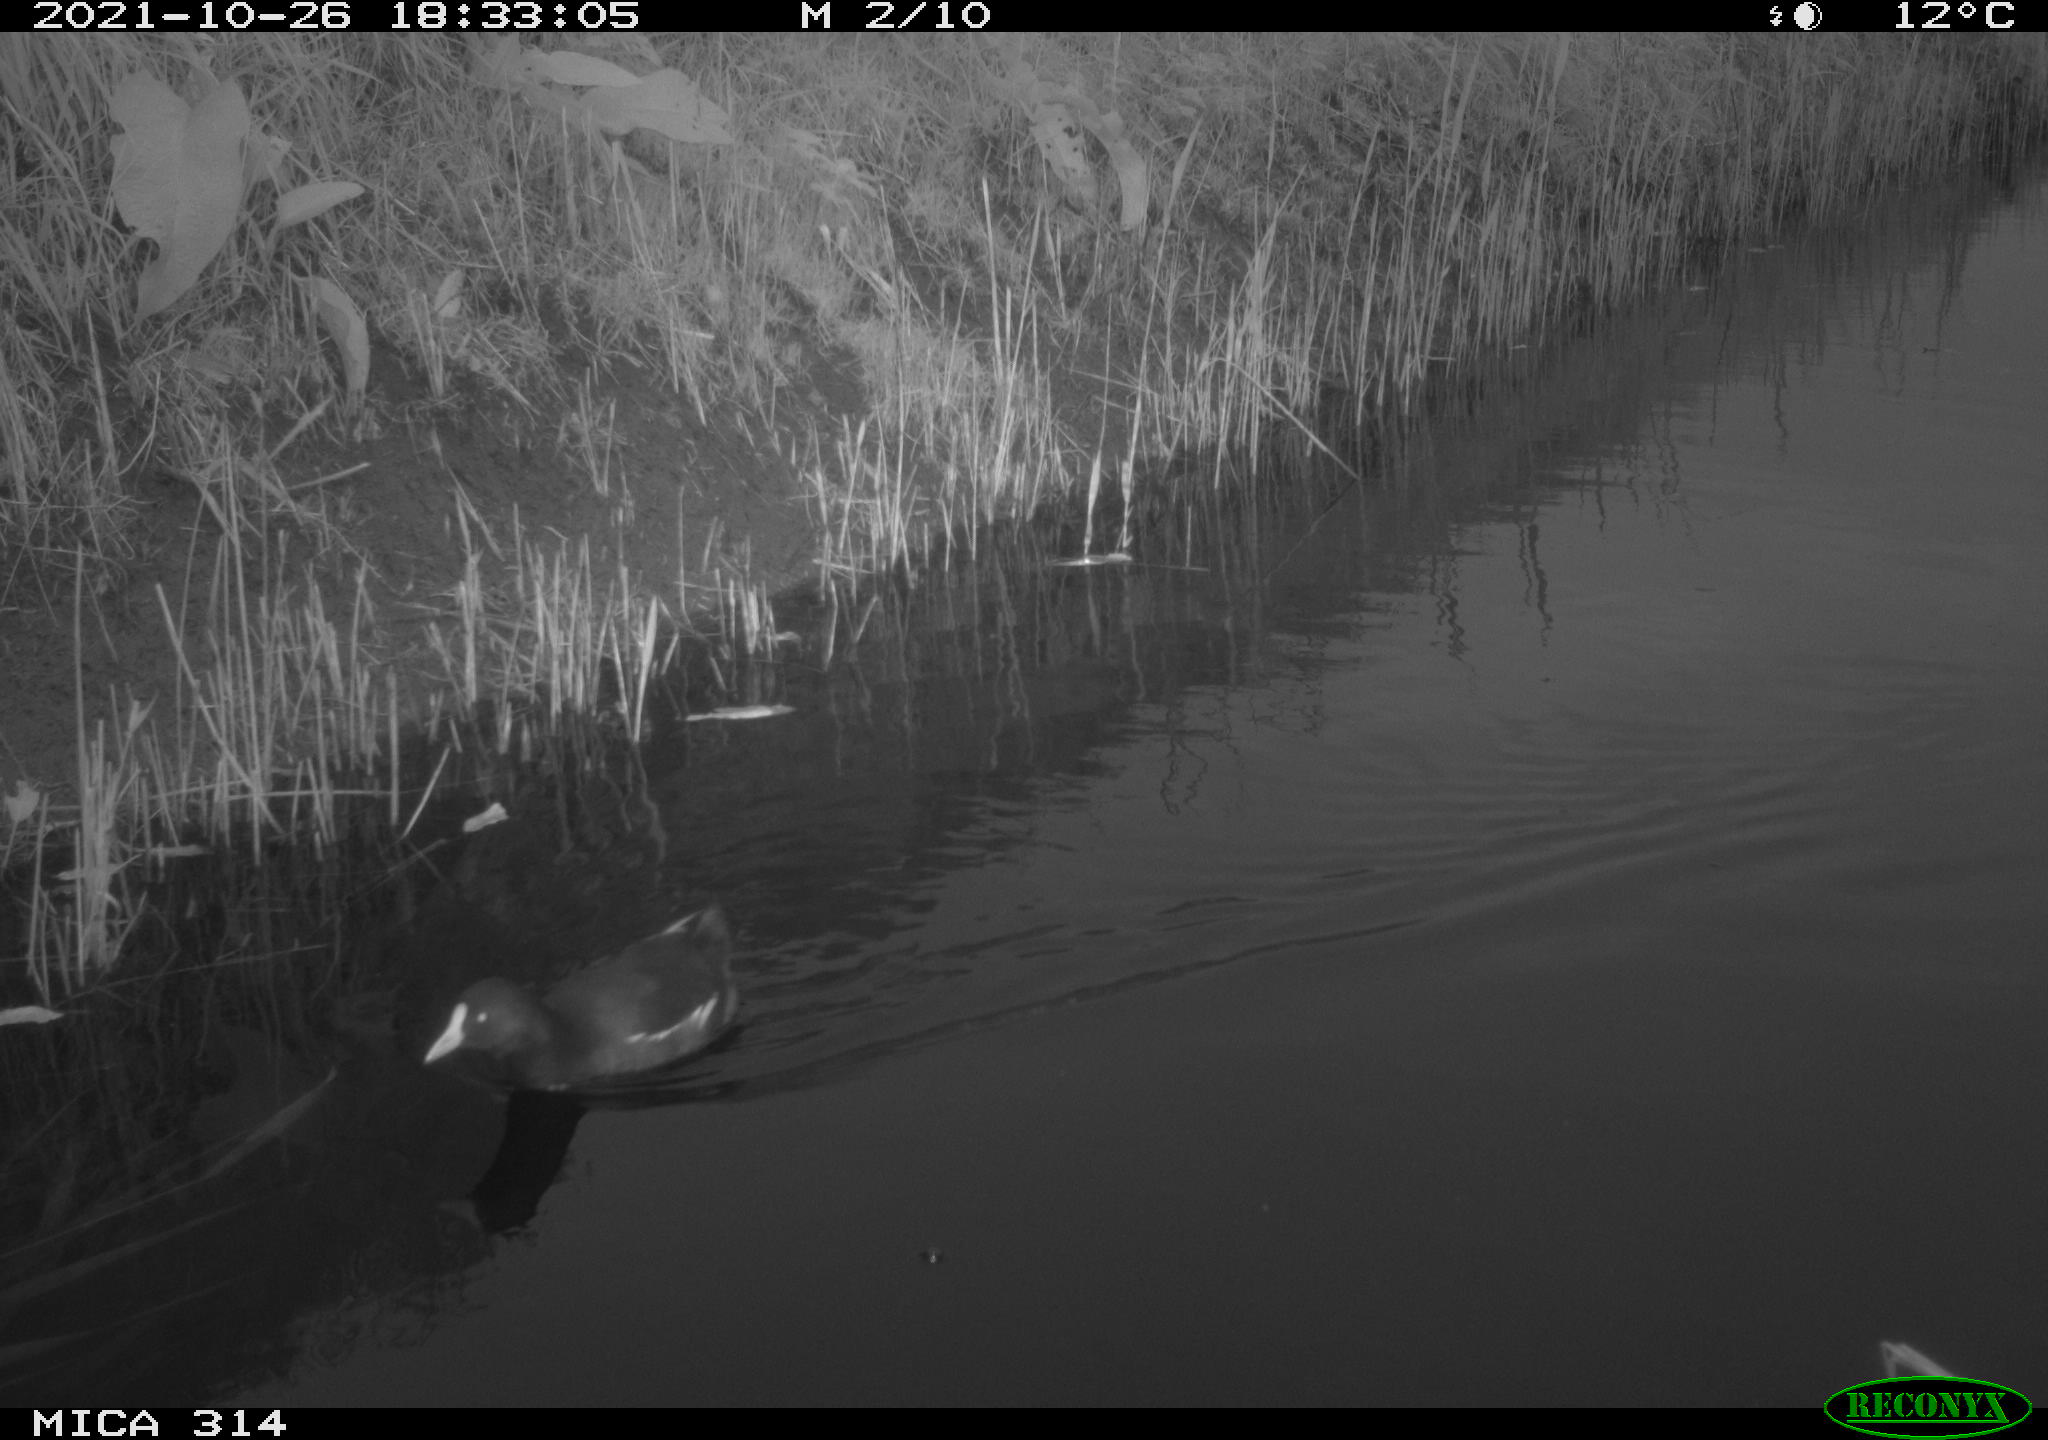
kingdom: Animalia
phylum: Chordata
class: Aves
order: Gruiformes
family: Rallidae
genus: Gallinula
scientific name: Gallinula chloropus
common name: Common moorhen
